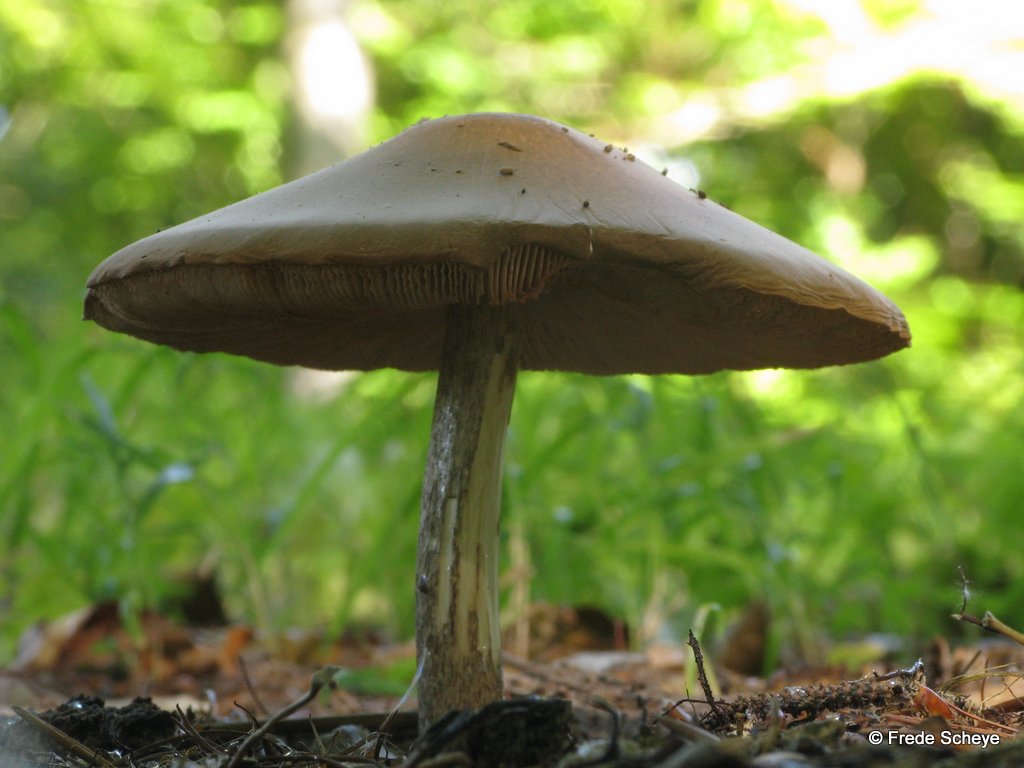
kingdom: Fungi
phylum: Basidiomycota
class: Agaricomycetes
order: Agaricales
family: Pluteaceae
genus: Pluteus
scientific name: Pluteus cervinus
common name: sodfarvet skærmhat
